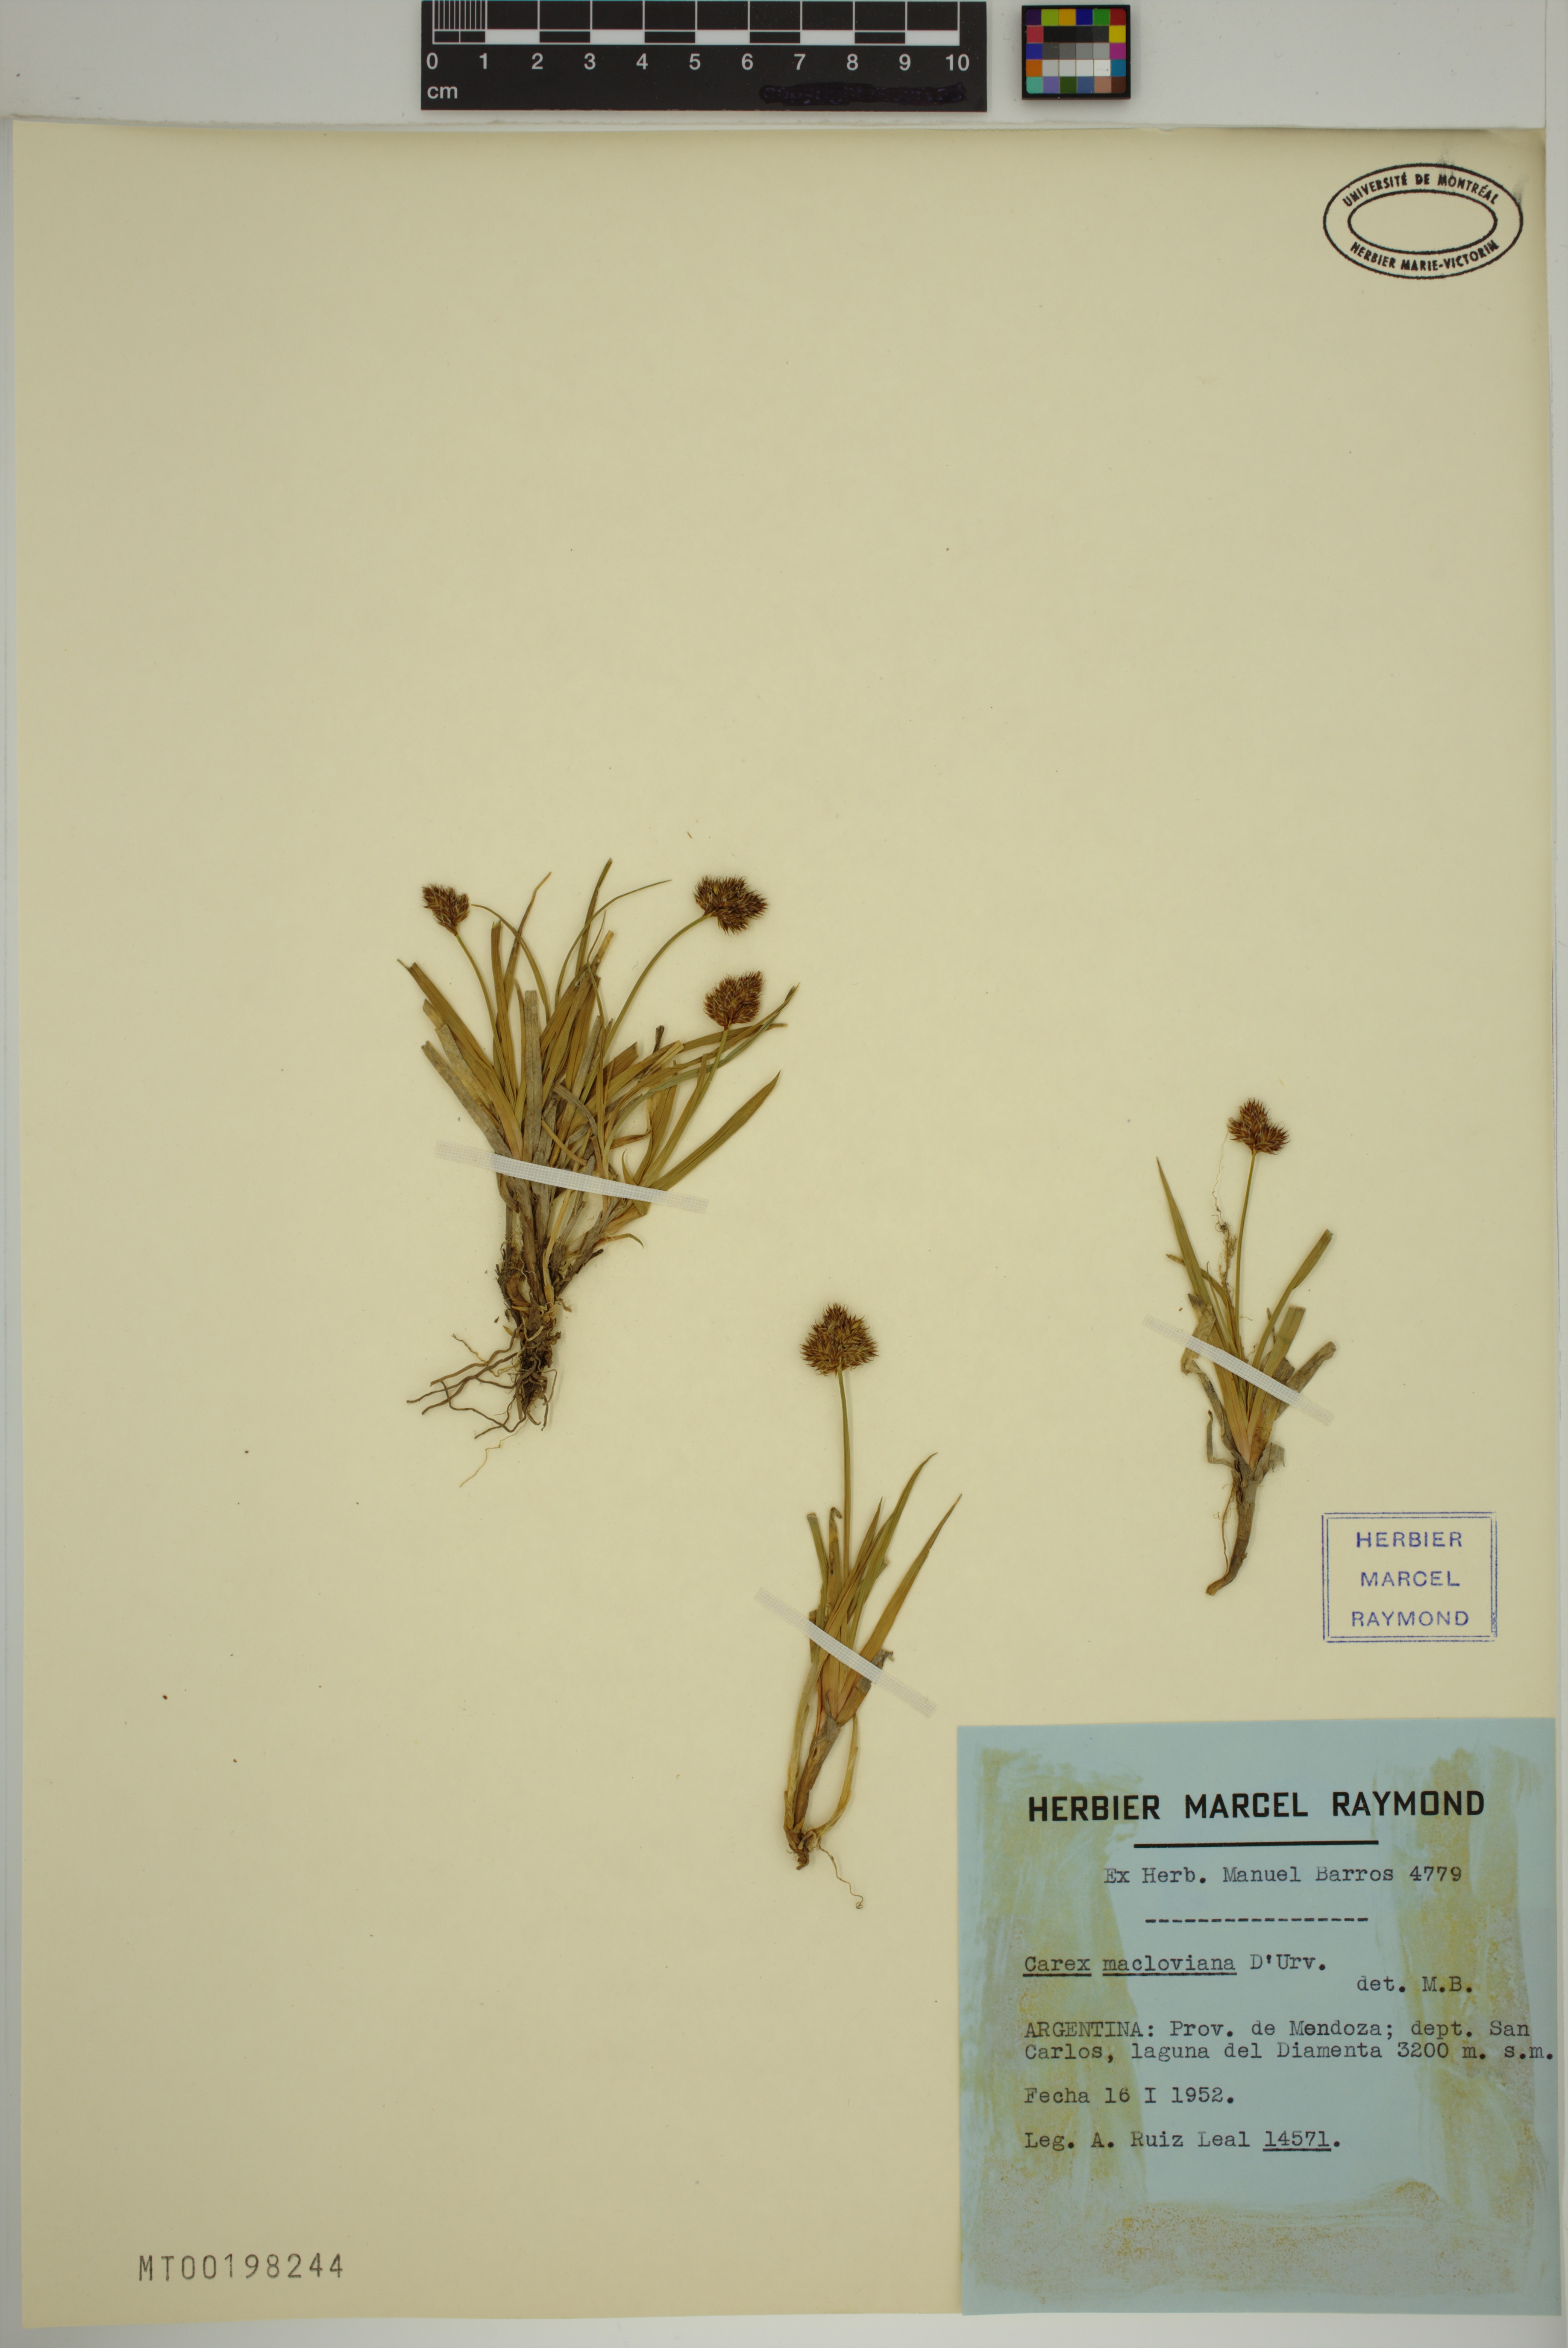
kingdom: Plantae
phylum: Tracheophyta
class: Liliopsida
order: Poales
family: Cyperaceae
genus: Carex
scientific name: Carex macloviana
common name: Falkland island sedge
